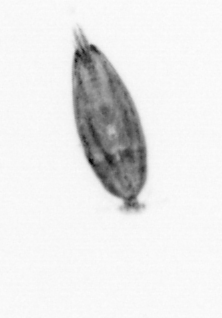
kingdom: Animalia
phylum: Arthropoda
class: Maxillopoda
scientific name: Maxillopoda
